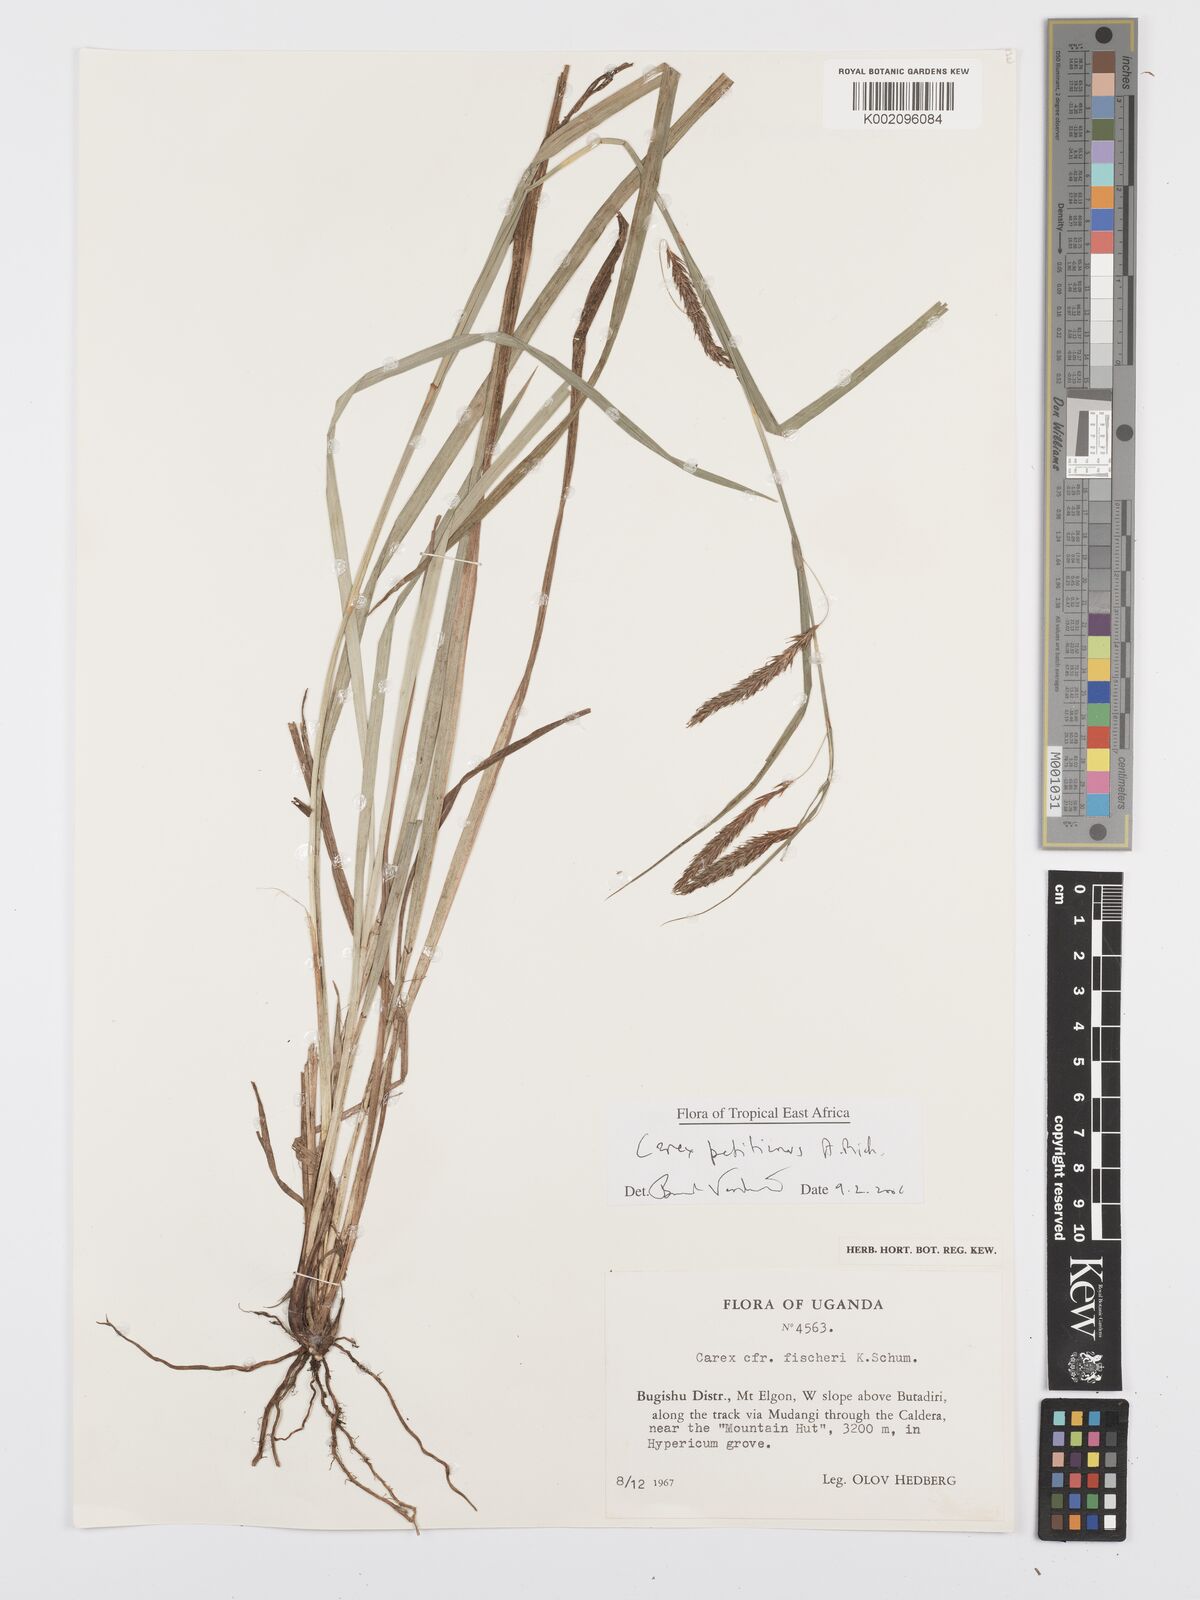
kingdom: Plantae
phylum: Tracheophyta
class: Liliopsida
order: Poales
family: Cyperaceae
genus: Carex
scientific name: Carex fischeri
